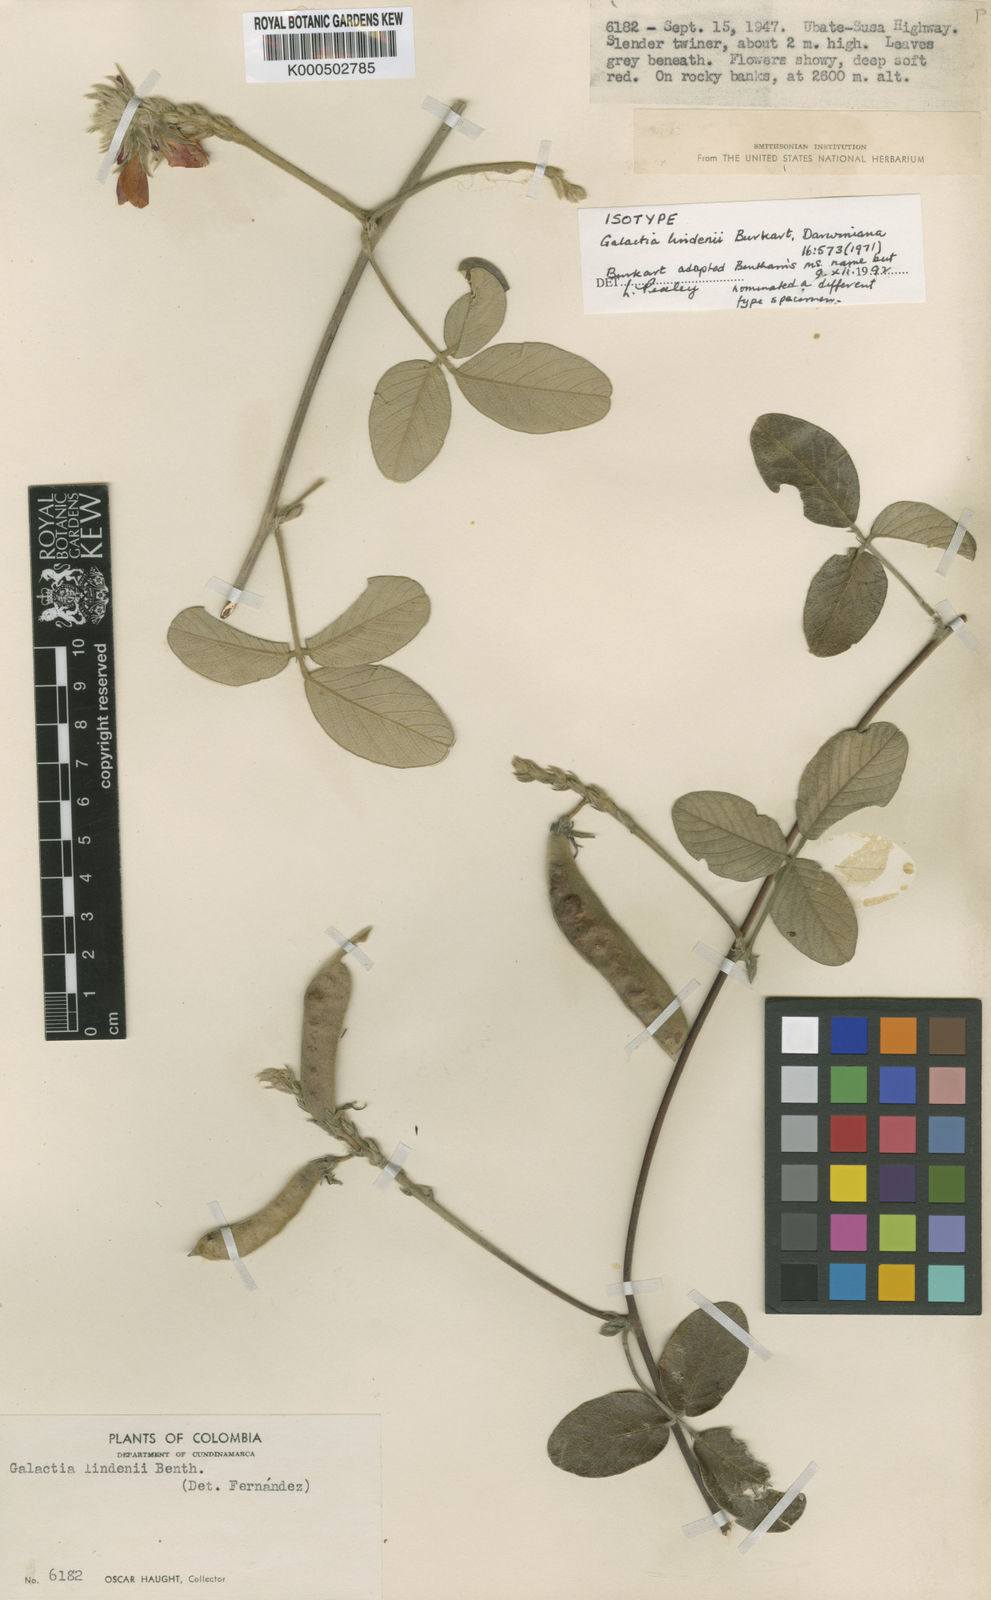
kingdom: Plantae
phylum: Tracheophyta
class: Magnoliopsida
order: Fabales
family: Fabaceae
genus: Galactia
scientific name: Galactia lindenii
